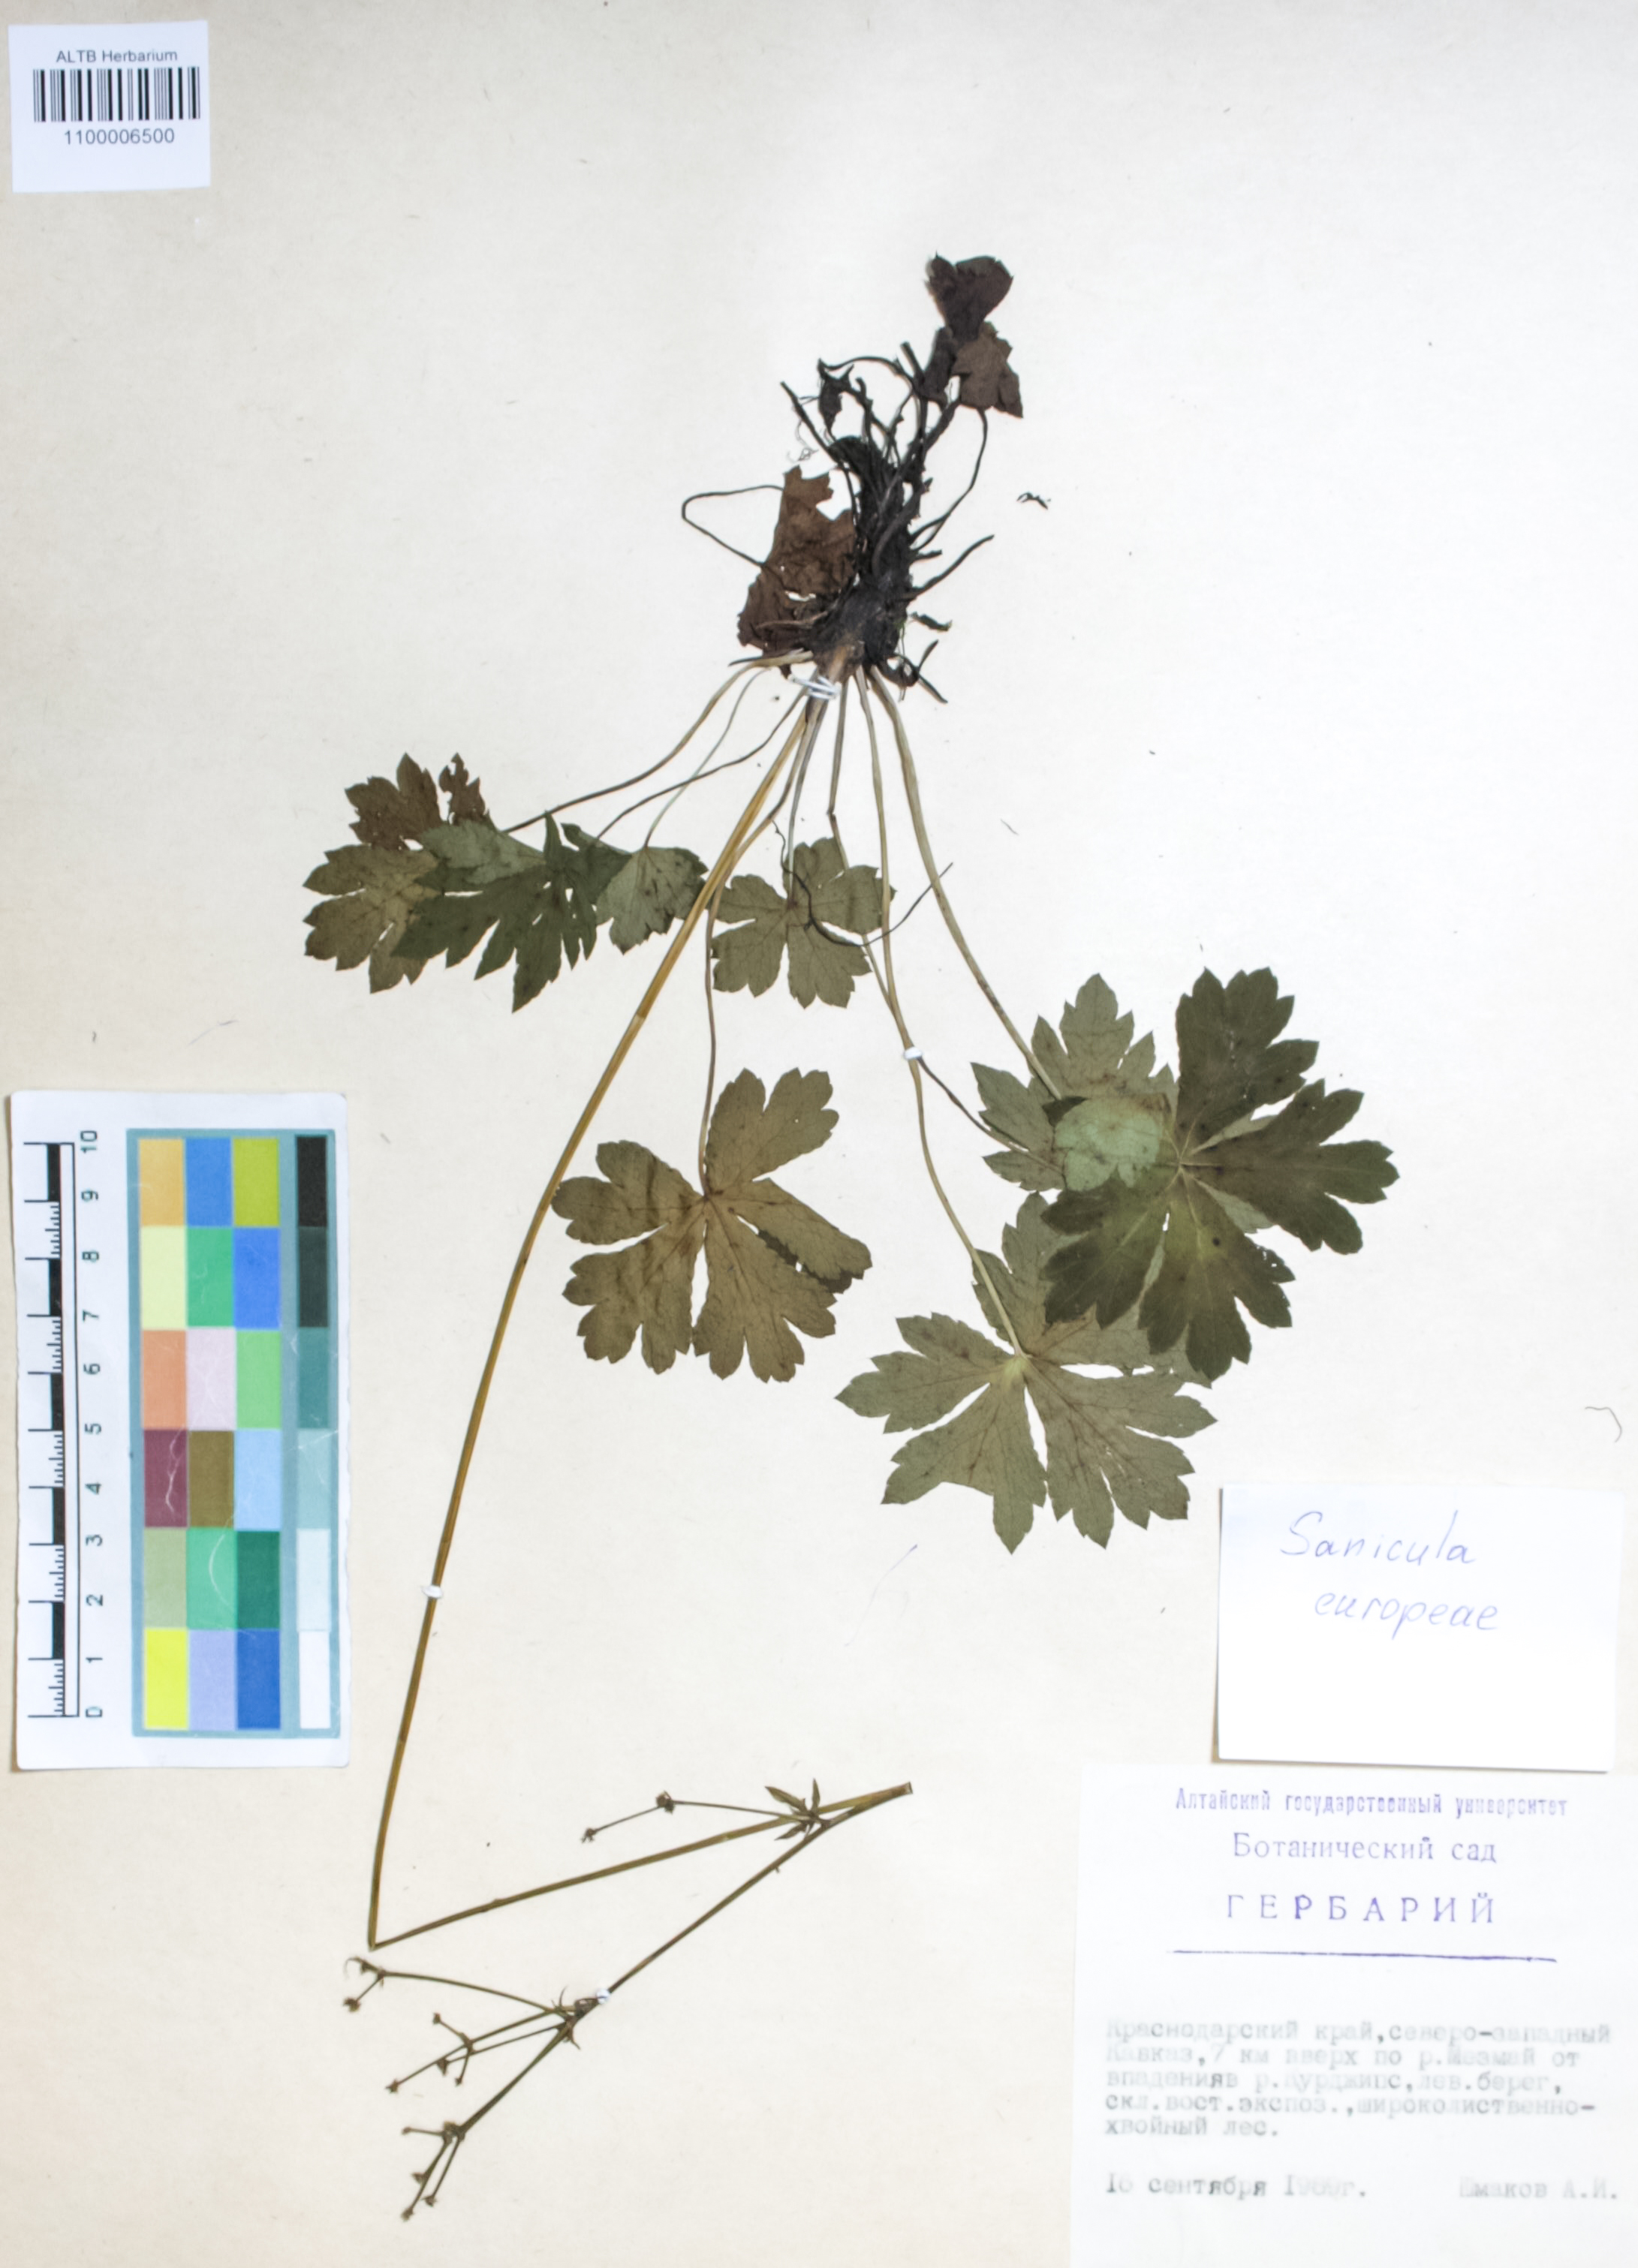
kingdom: Plantae
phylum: Tracheophyta
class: Magnoliopsida
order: Apiales
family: Apiaceae
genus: Sanicula
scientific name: Sanicula europaea
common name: Sanicle
